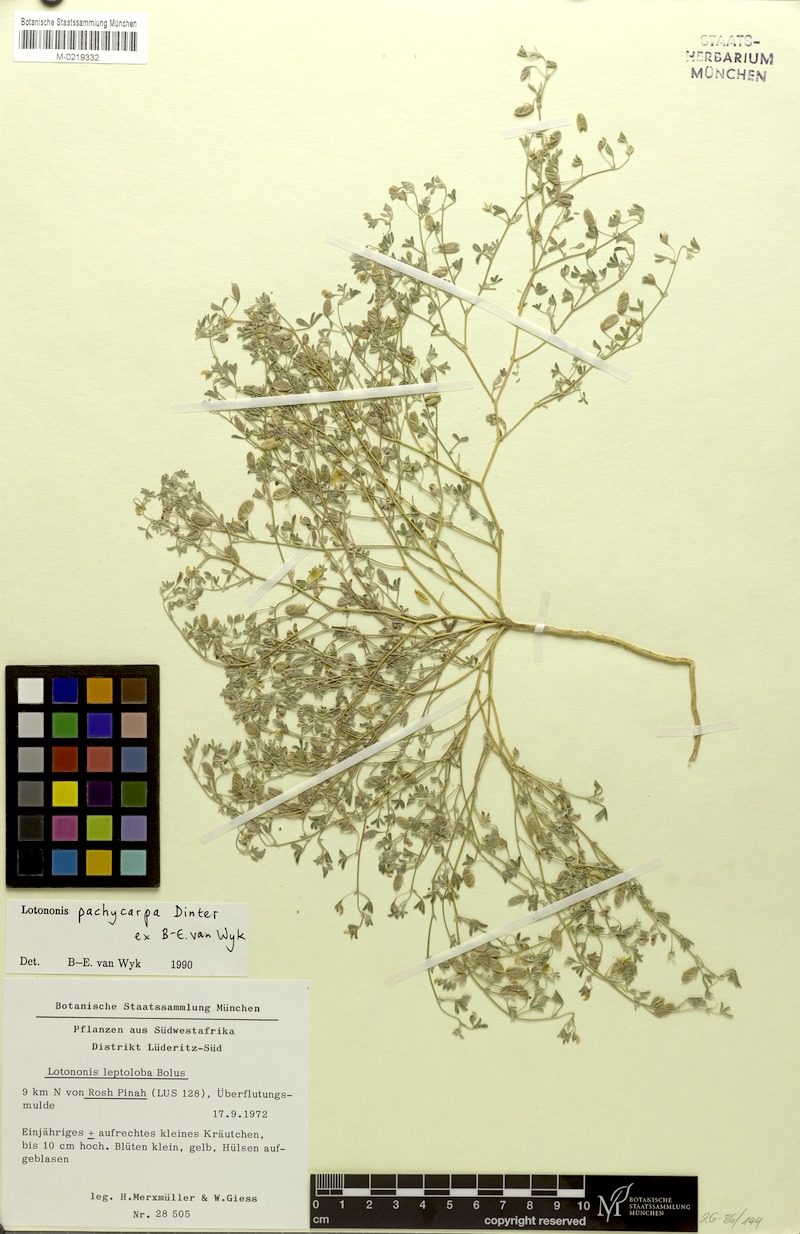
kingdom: Plantae
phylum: Tracheophyta
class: Magnoliopsida
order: Fabales
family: Fabaceae
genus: Lotononis
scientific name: Lotononis pachycarpa
